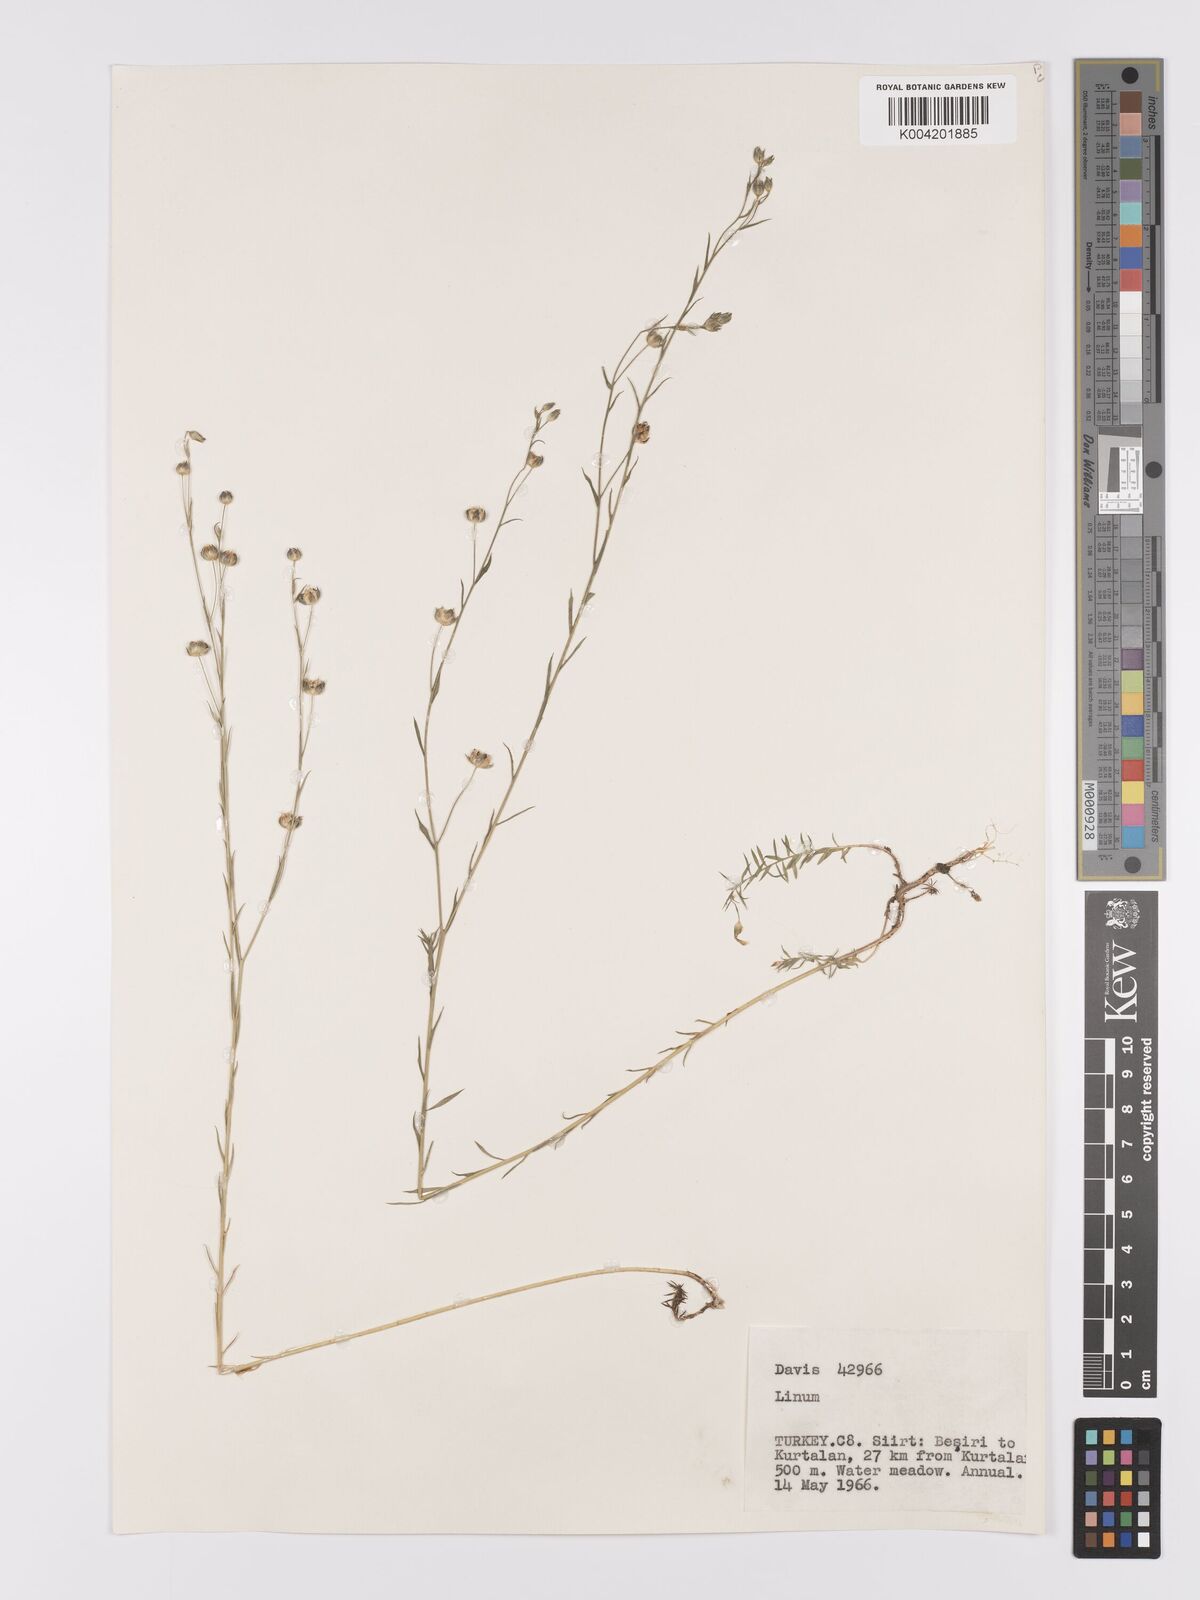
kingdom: Plantae
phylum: Tracheophyta
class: Magnoliopsida
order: Malpighiales
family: Linaceae
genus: Linum
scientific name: Linum
